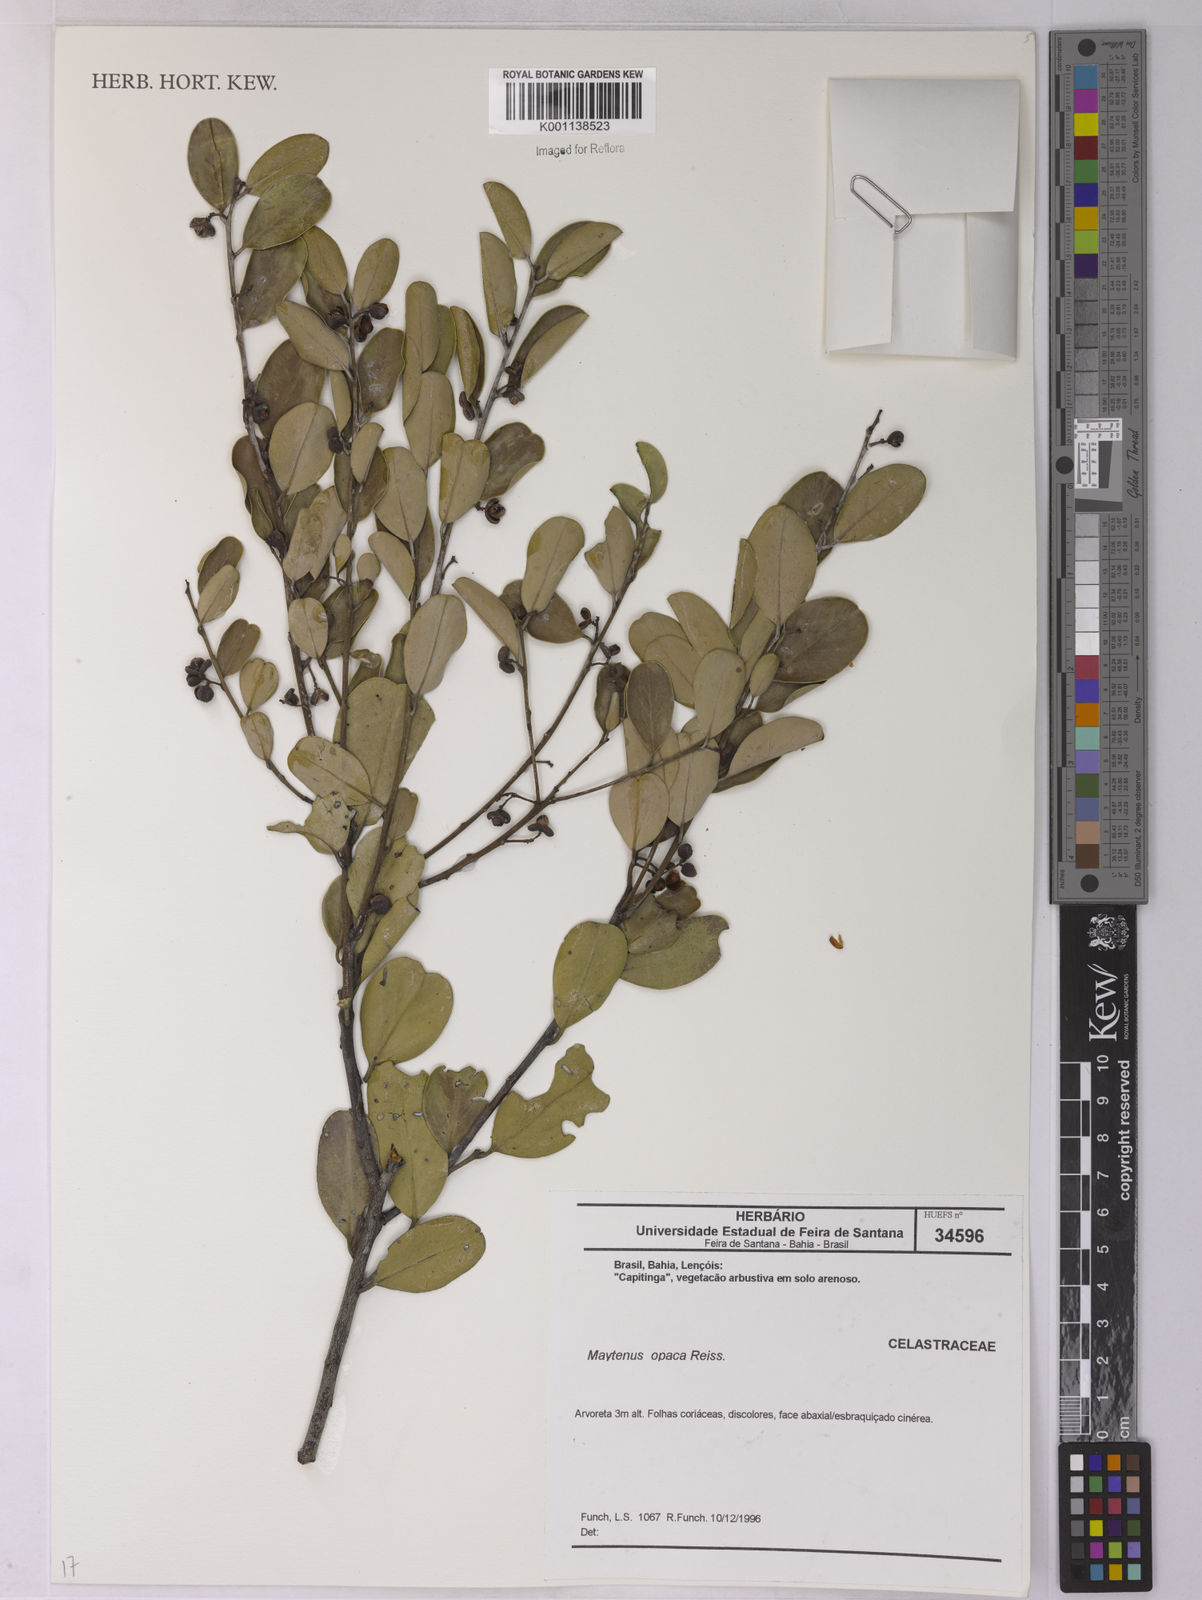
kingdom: Plantae
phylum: Tracheophyta
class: Magnoliopsida
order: Celastrales
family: Celastraceae
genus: Monteverdia
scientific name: Monteverdia opaca
